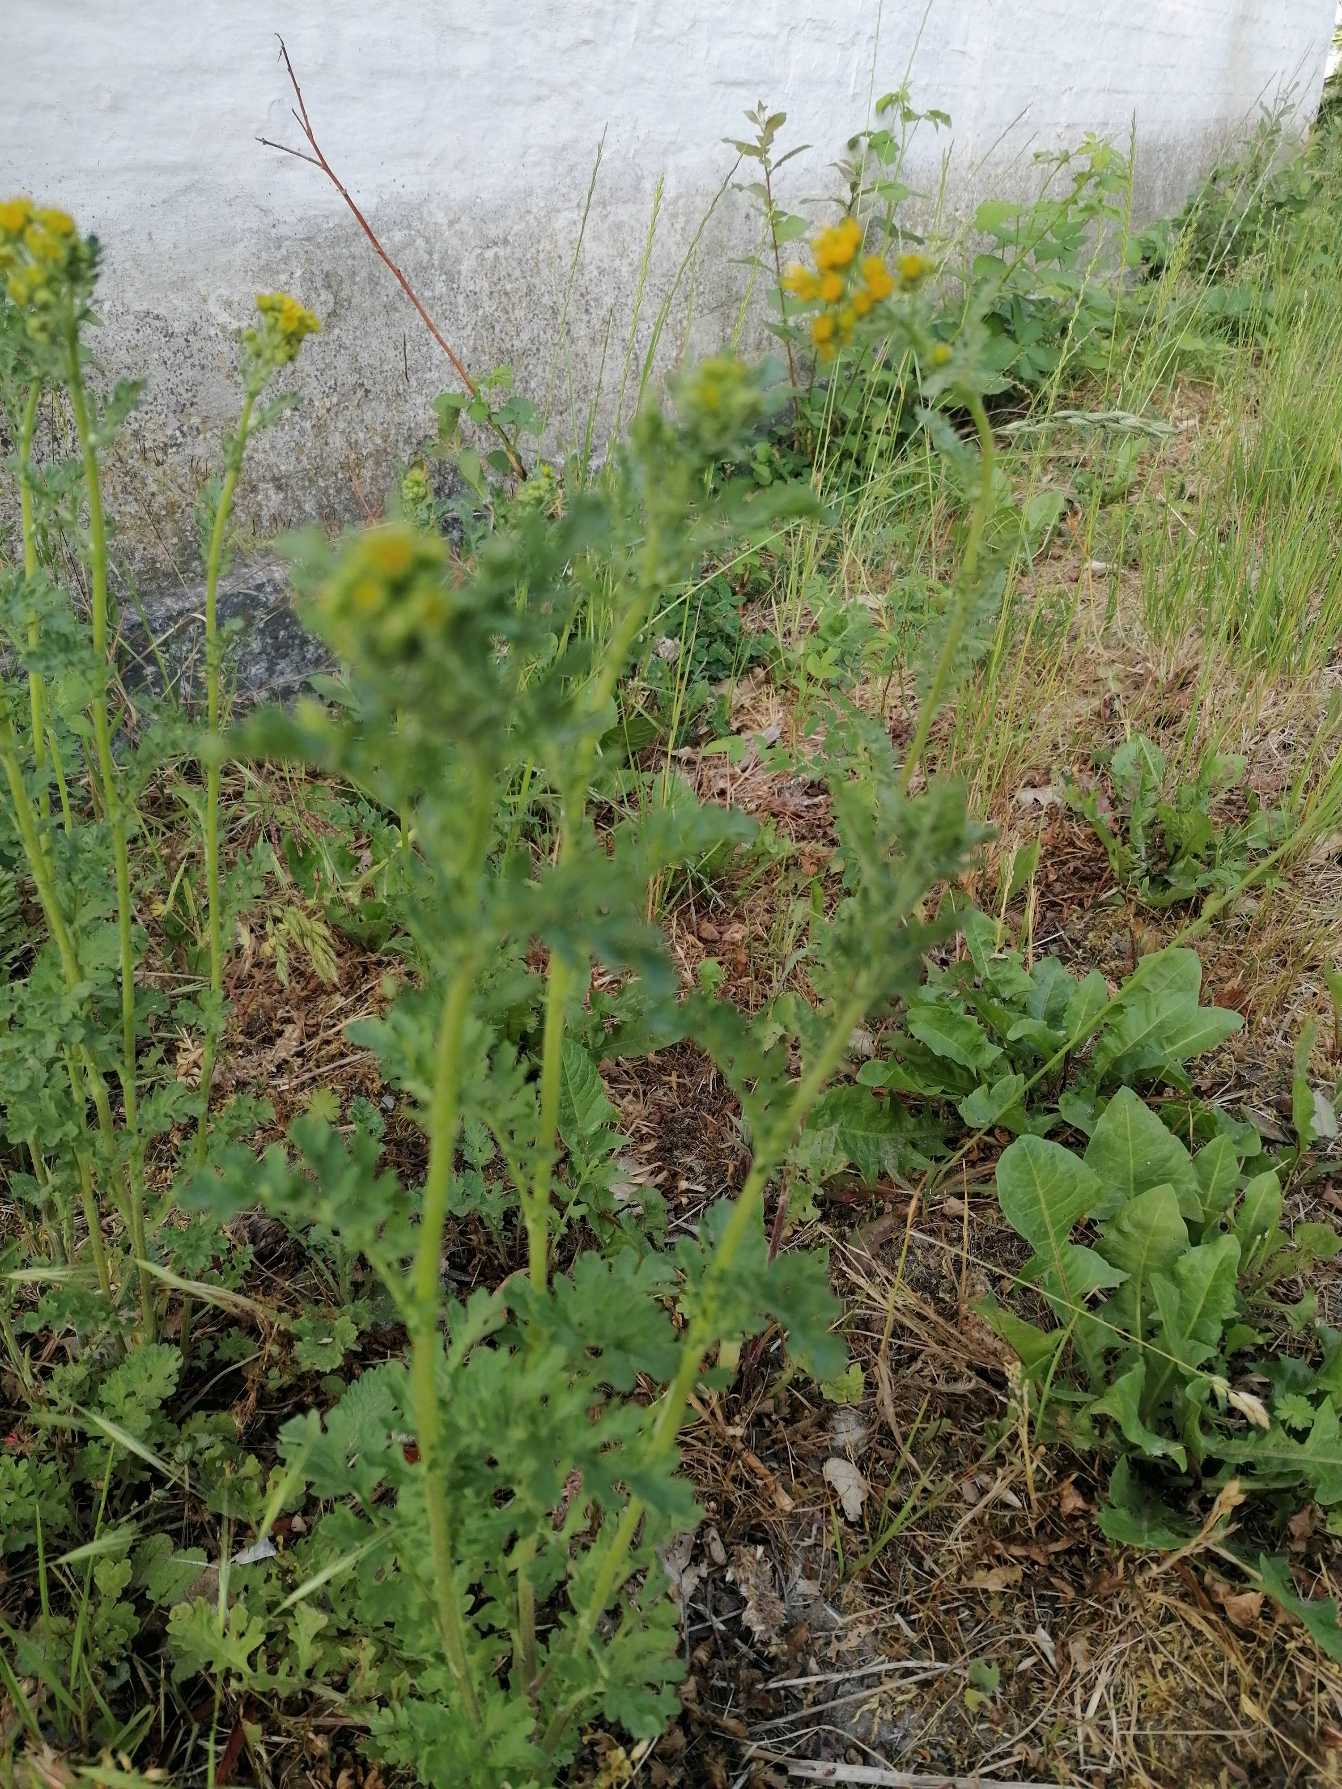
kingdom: Plantae
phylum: Tracheophyta
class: Magnoliopsida
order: Asterales
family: Asteraceae
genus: Jacobaea
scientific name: Jacobaea vulgaris
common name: Eng-brandbæger
